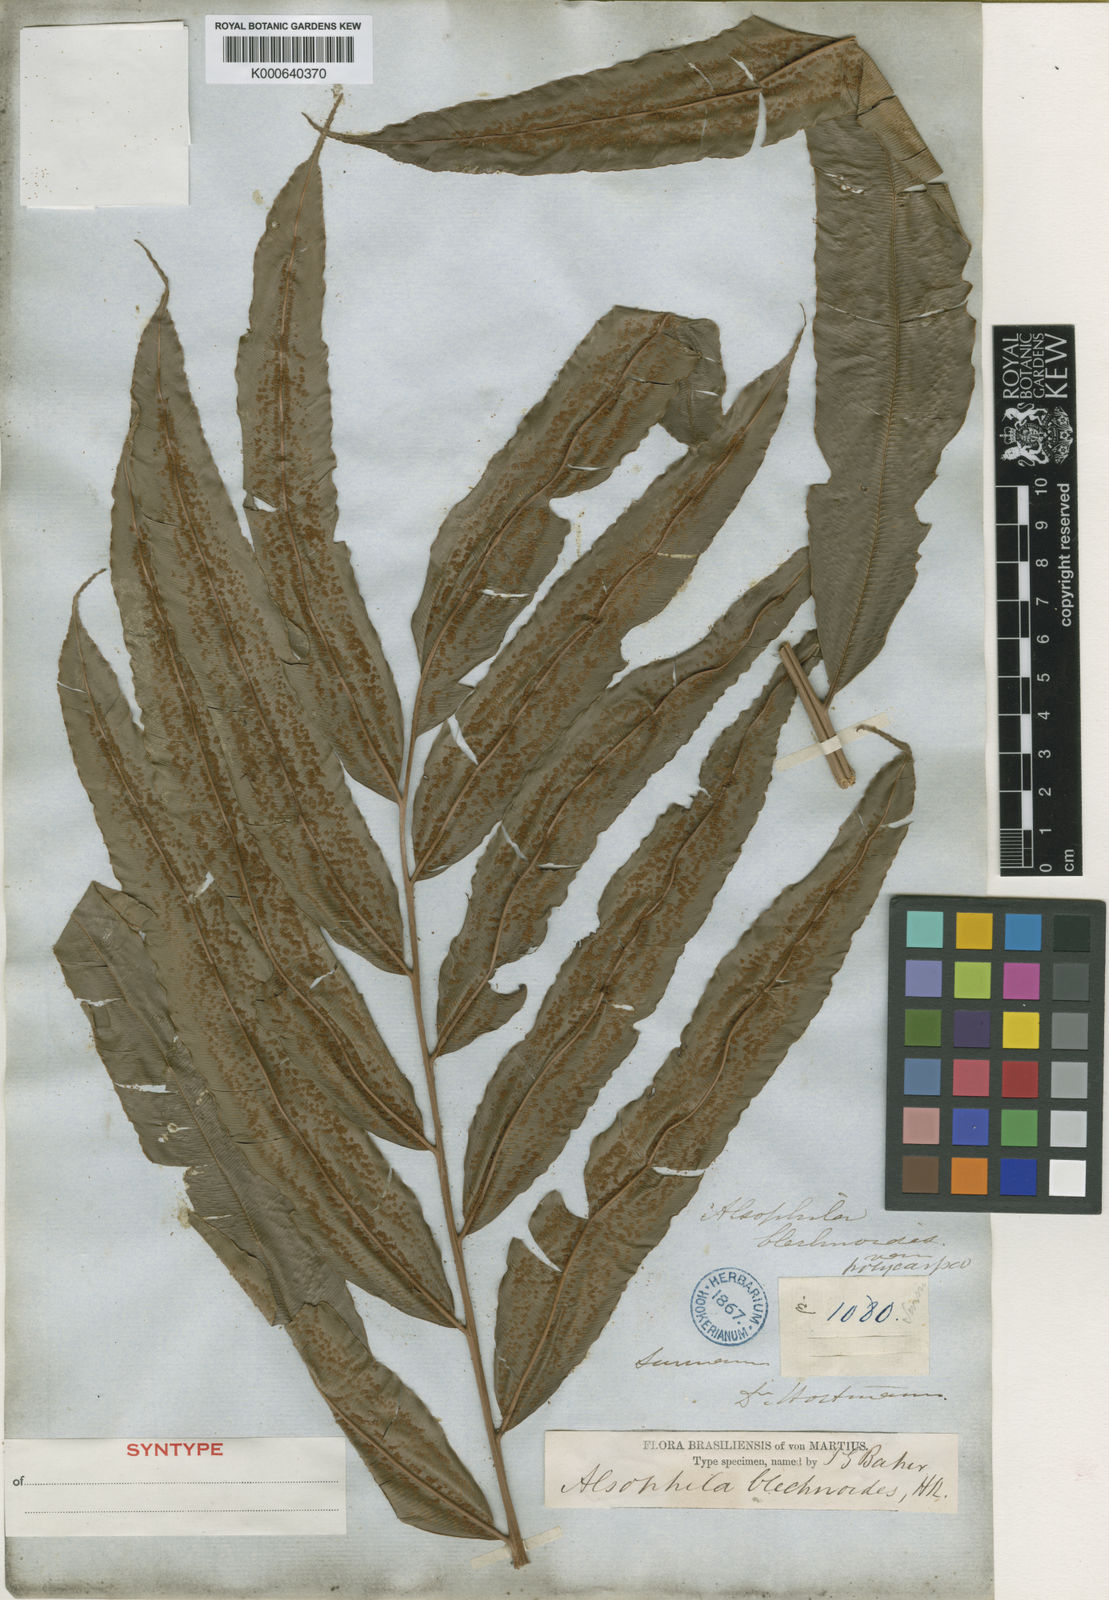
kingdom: Plantae
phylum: Tracheophyta
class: Polypodiopsida
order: Cyatheales
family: Metaxyaceae
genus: Metaxya
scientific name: Metaxya rostrata
